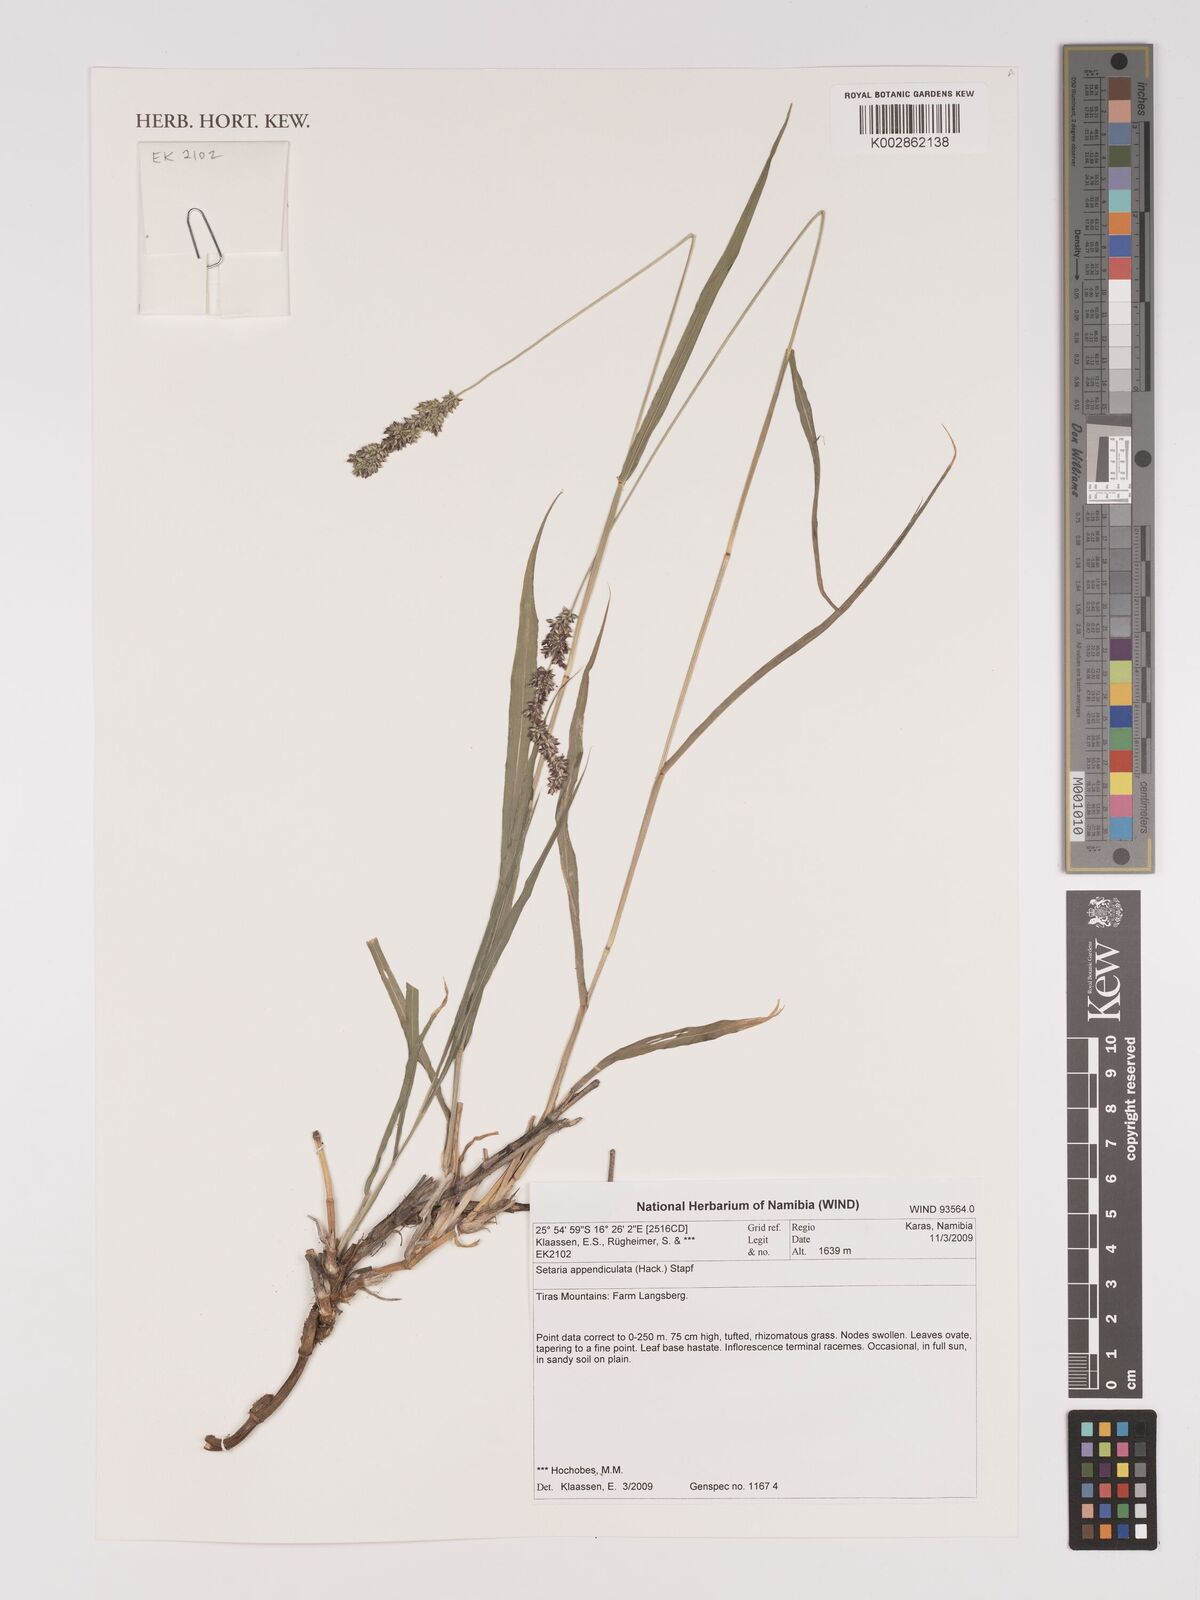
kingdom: Plantae
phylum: Tracheophyta
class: Liliopsida
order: Poales
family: Poaceae
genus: Setaria
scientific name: Setaria appendiculata
